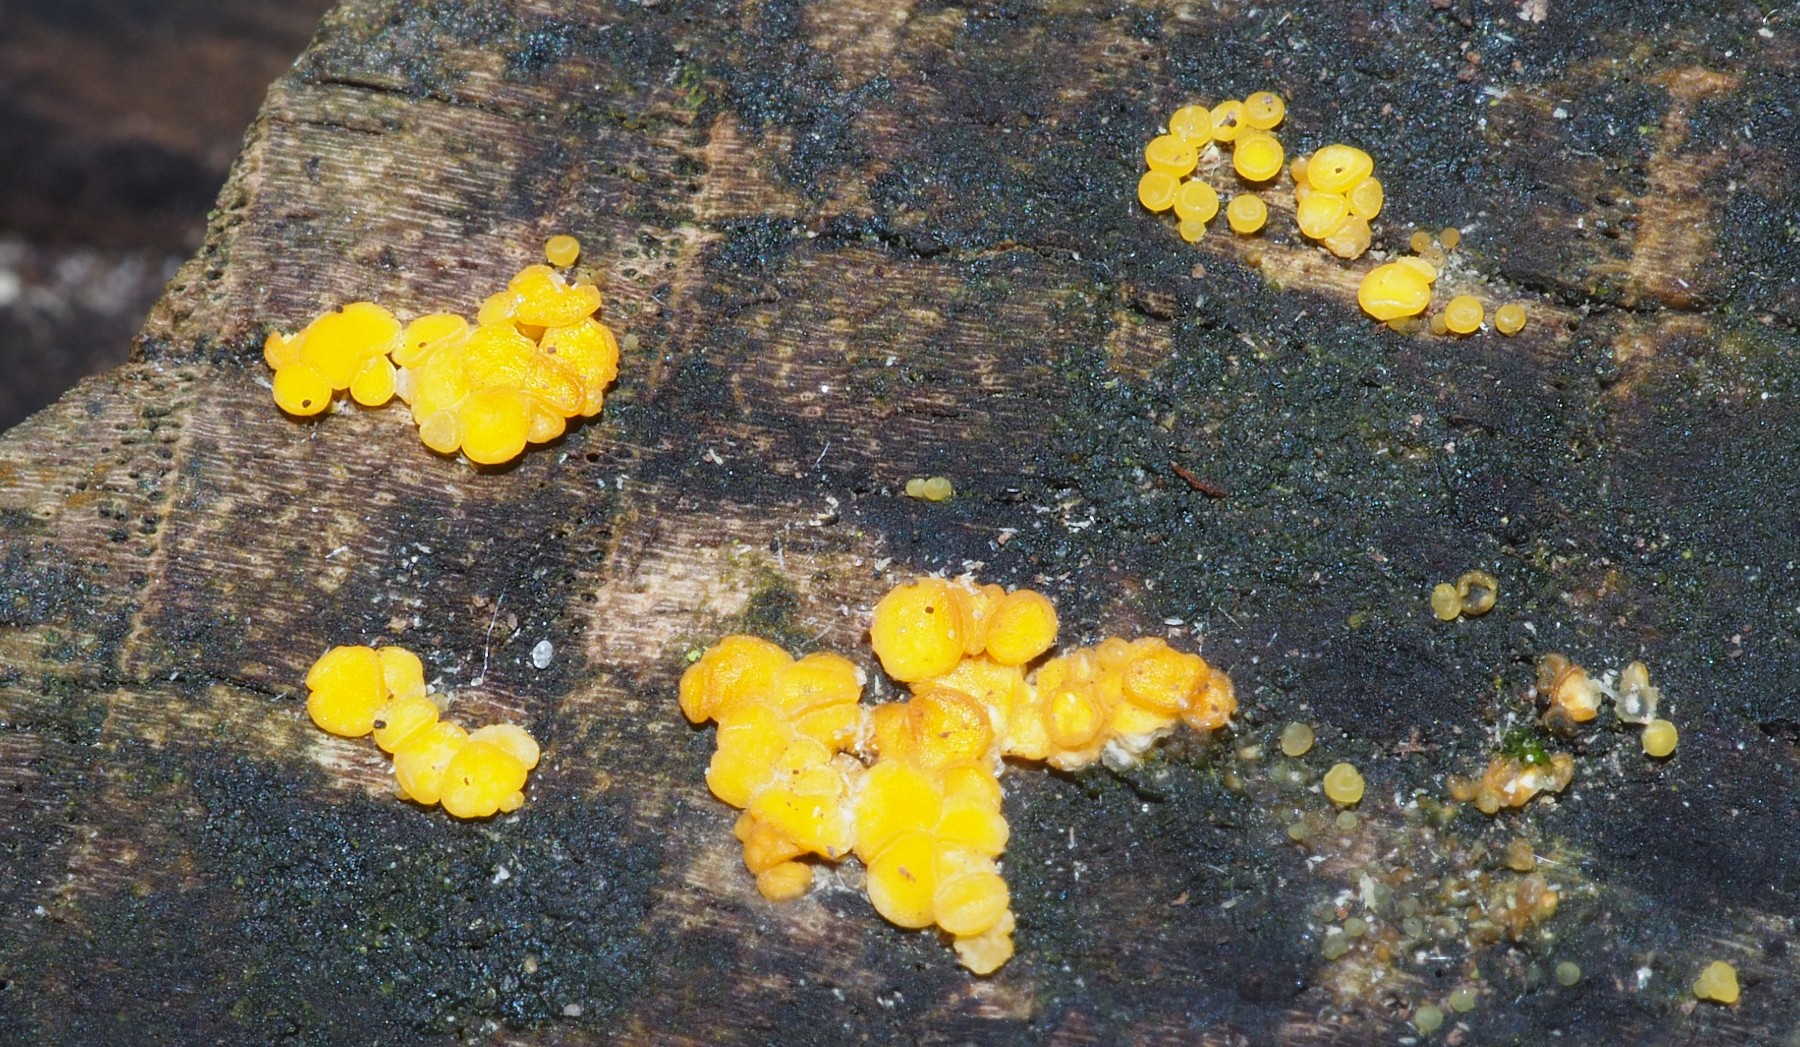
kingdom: Fungi
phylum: Ascomycota
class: Leotiomycetes
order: Helotiales
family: Pezizellaceae
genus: Calycina
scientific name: Calycina citrina
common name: almindelig gulskive
